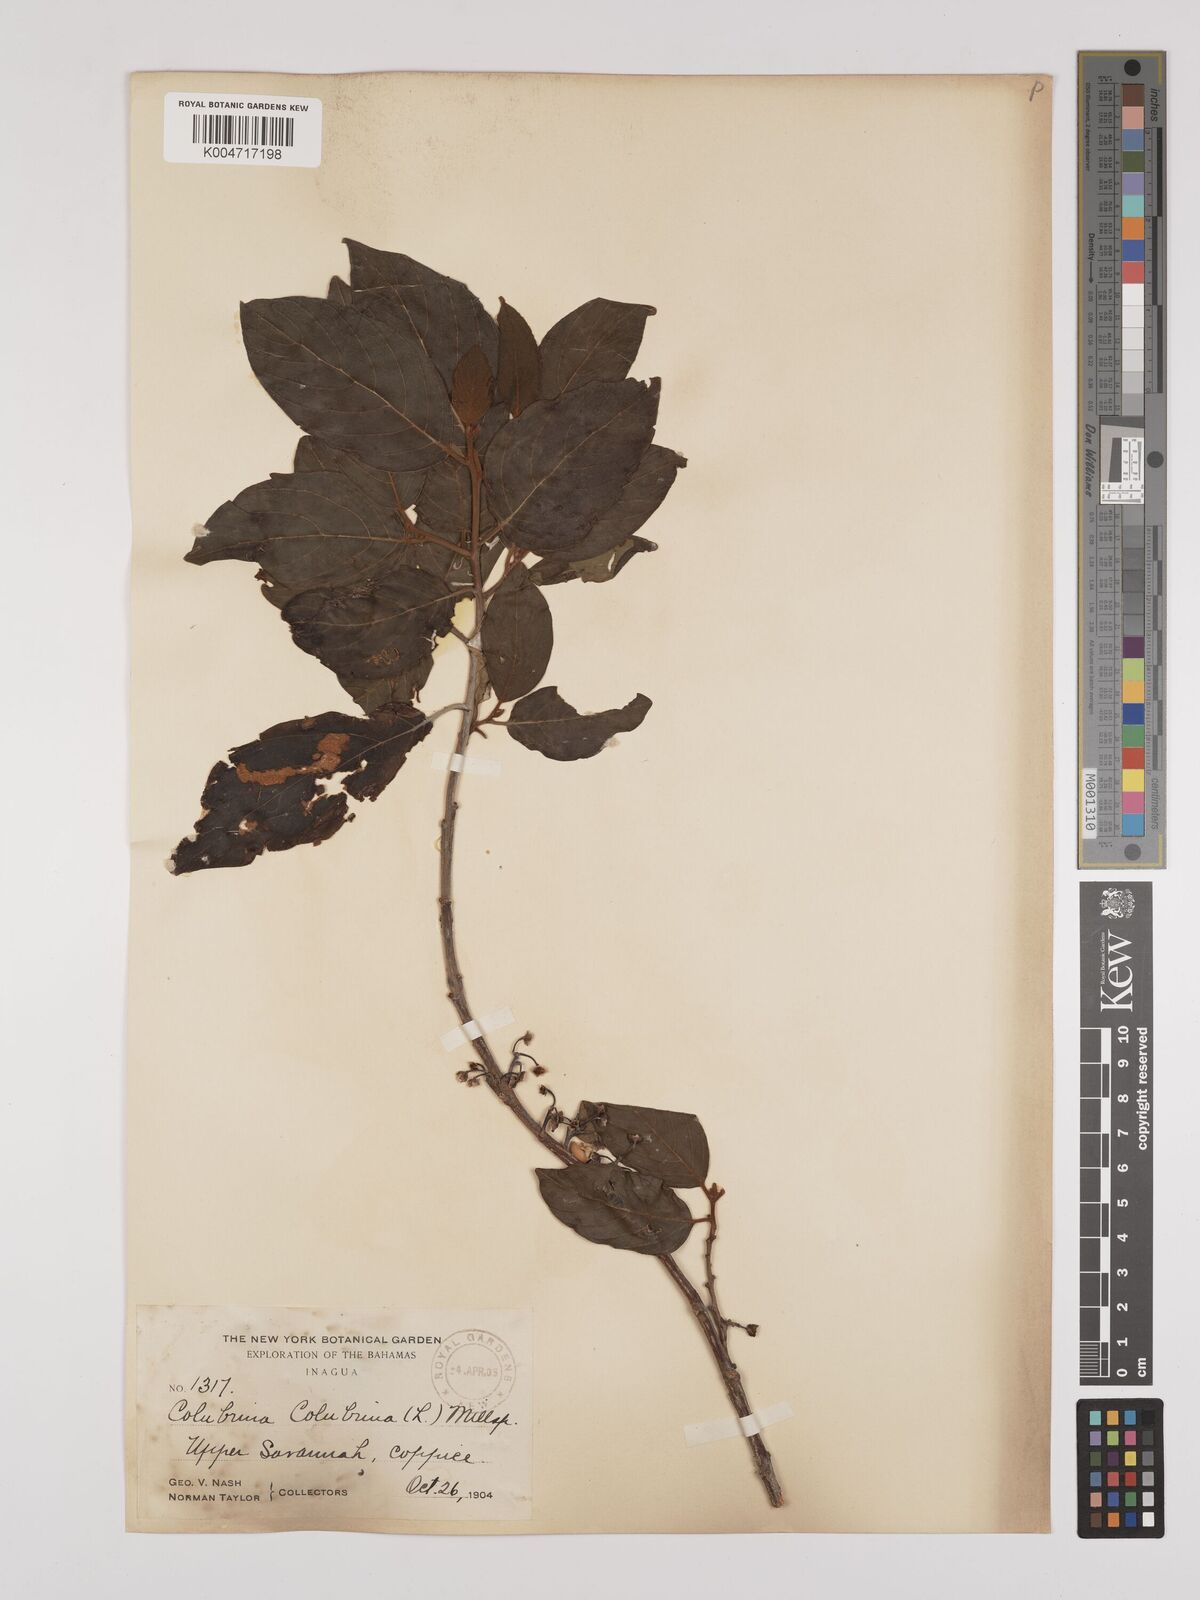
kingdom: Plantae
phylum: Tracheophyta
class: Magnoliopsida
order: Rosales
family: Rhamnaceae
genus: Colubrina
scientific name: Colubrina arborescens
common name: Wild coffee
